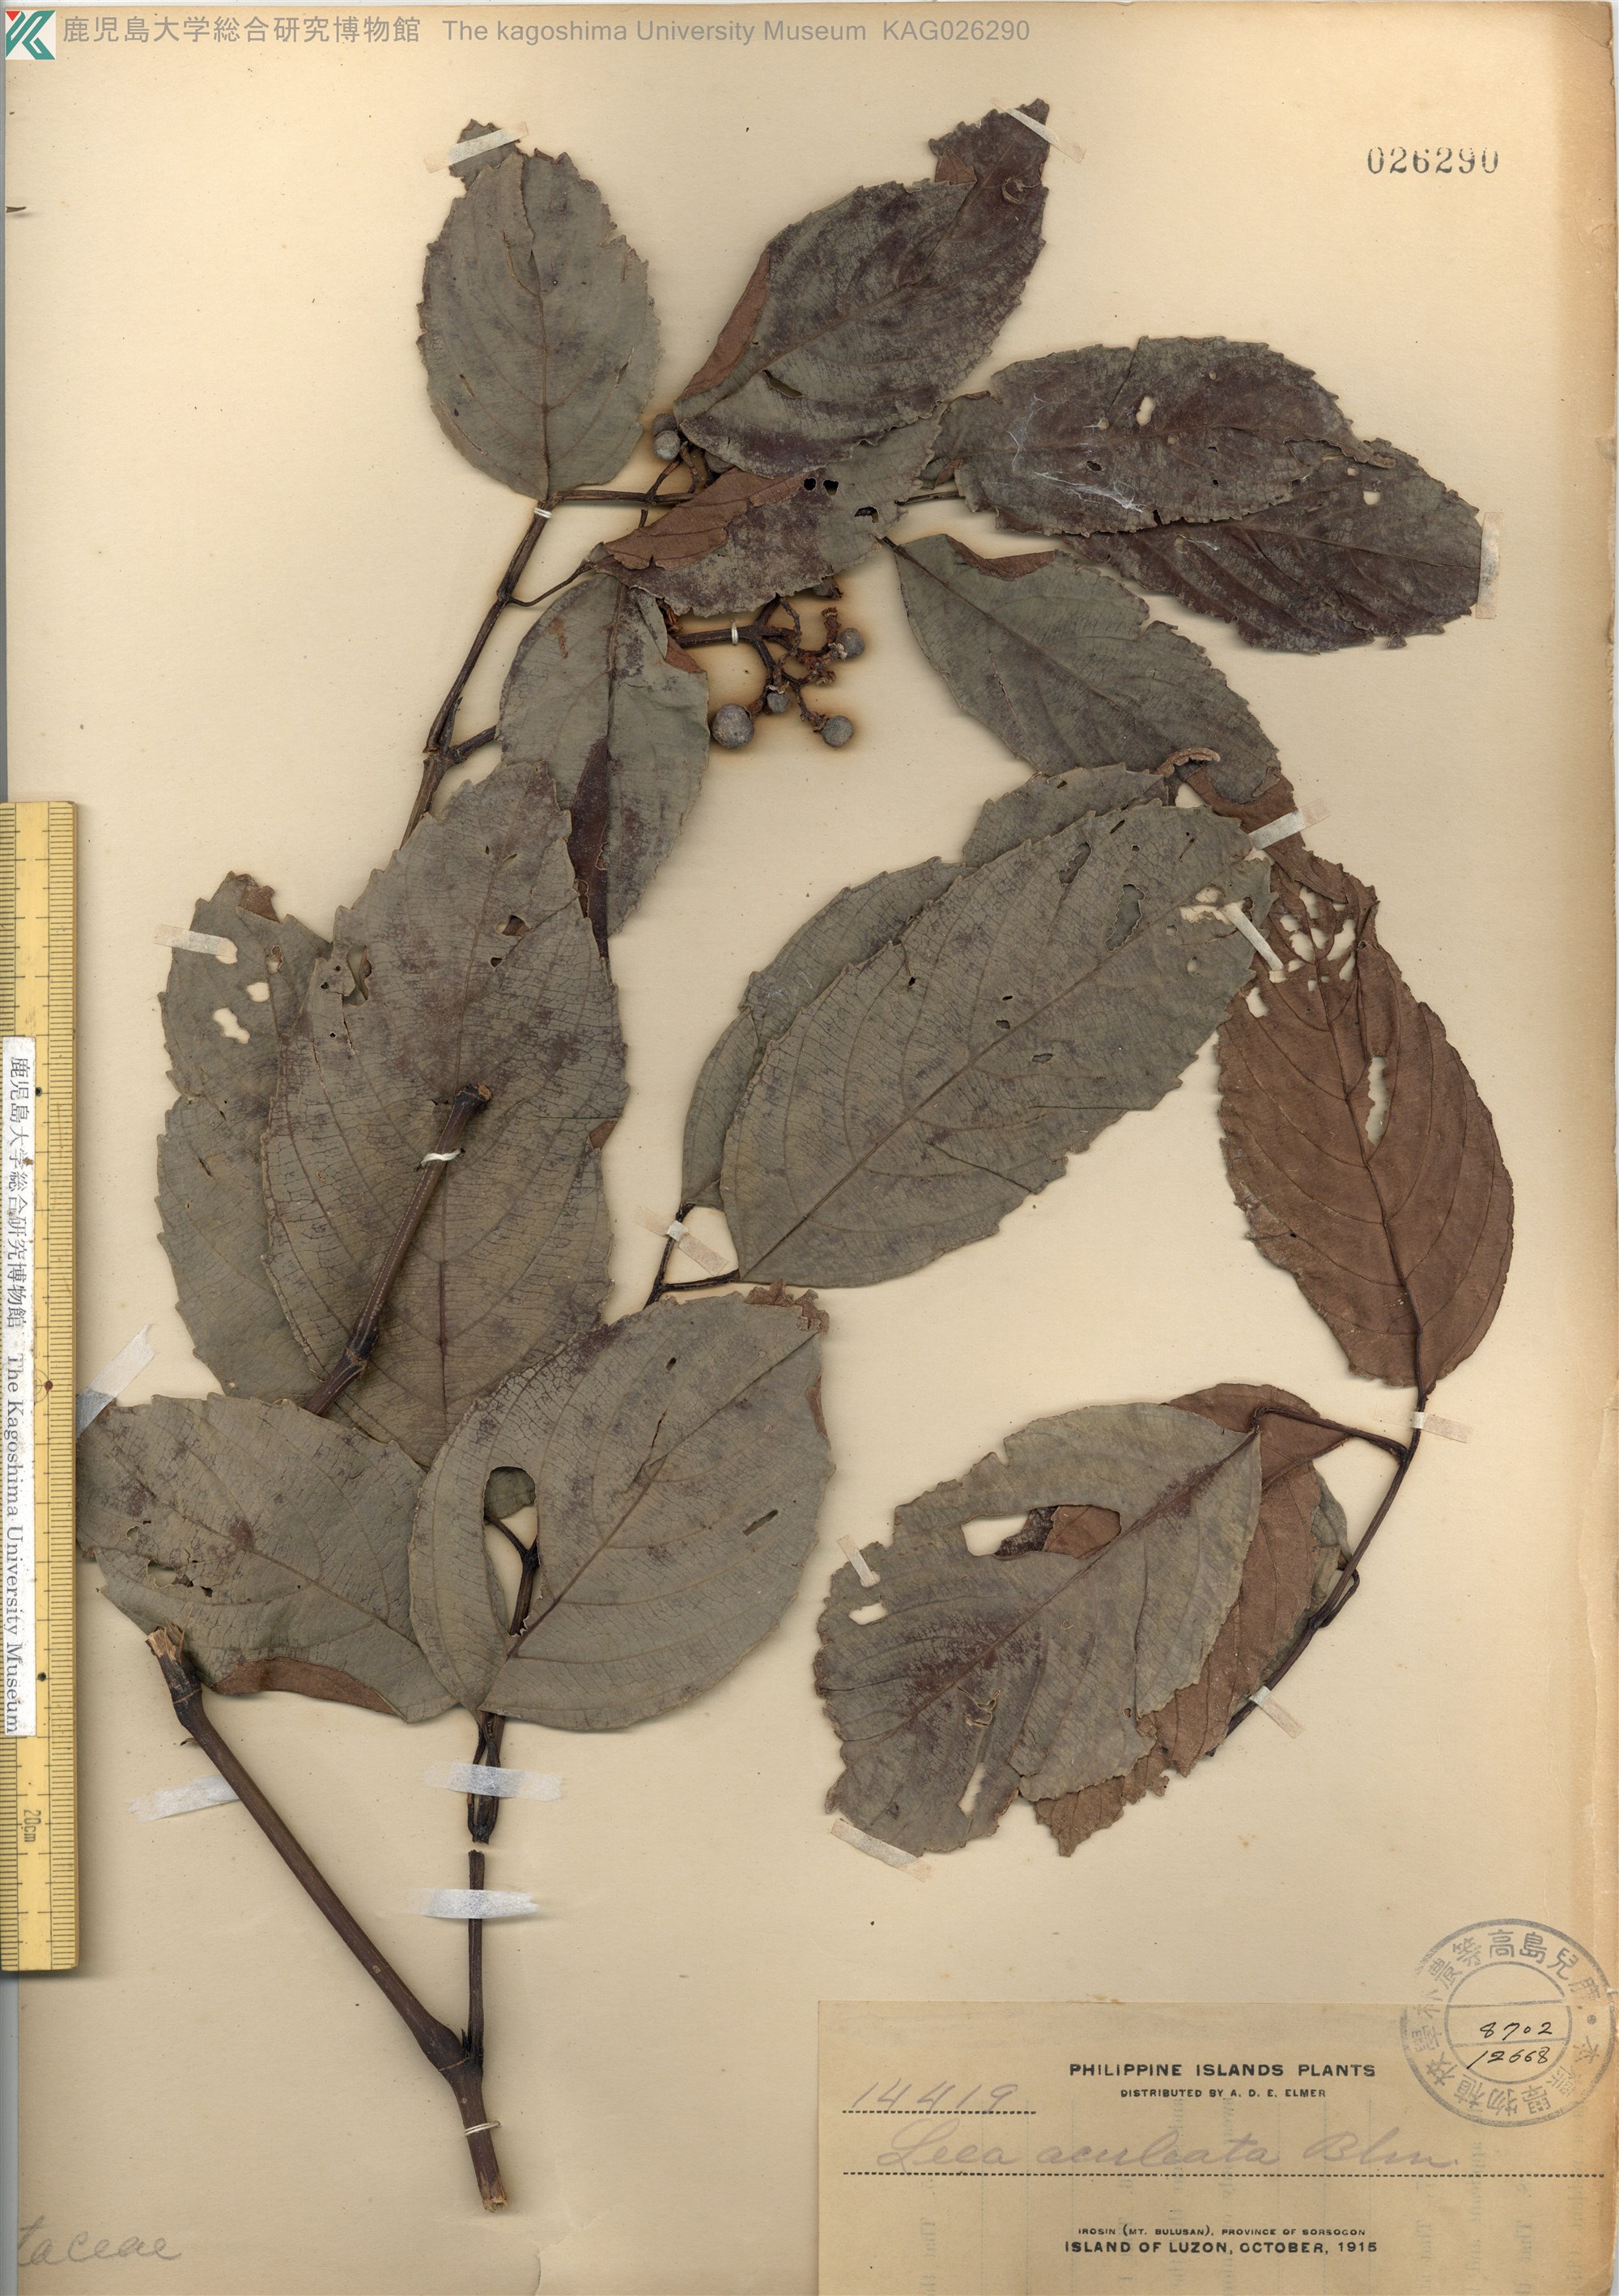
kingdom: Plantae
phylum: Tracheophyta
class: Magnoliopsida
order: Vitales
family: Vitaceae
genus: Leea
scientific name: Leea aculeata
